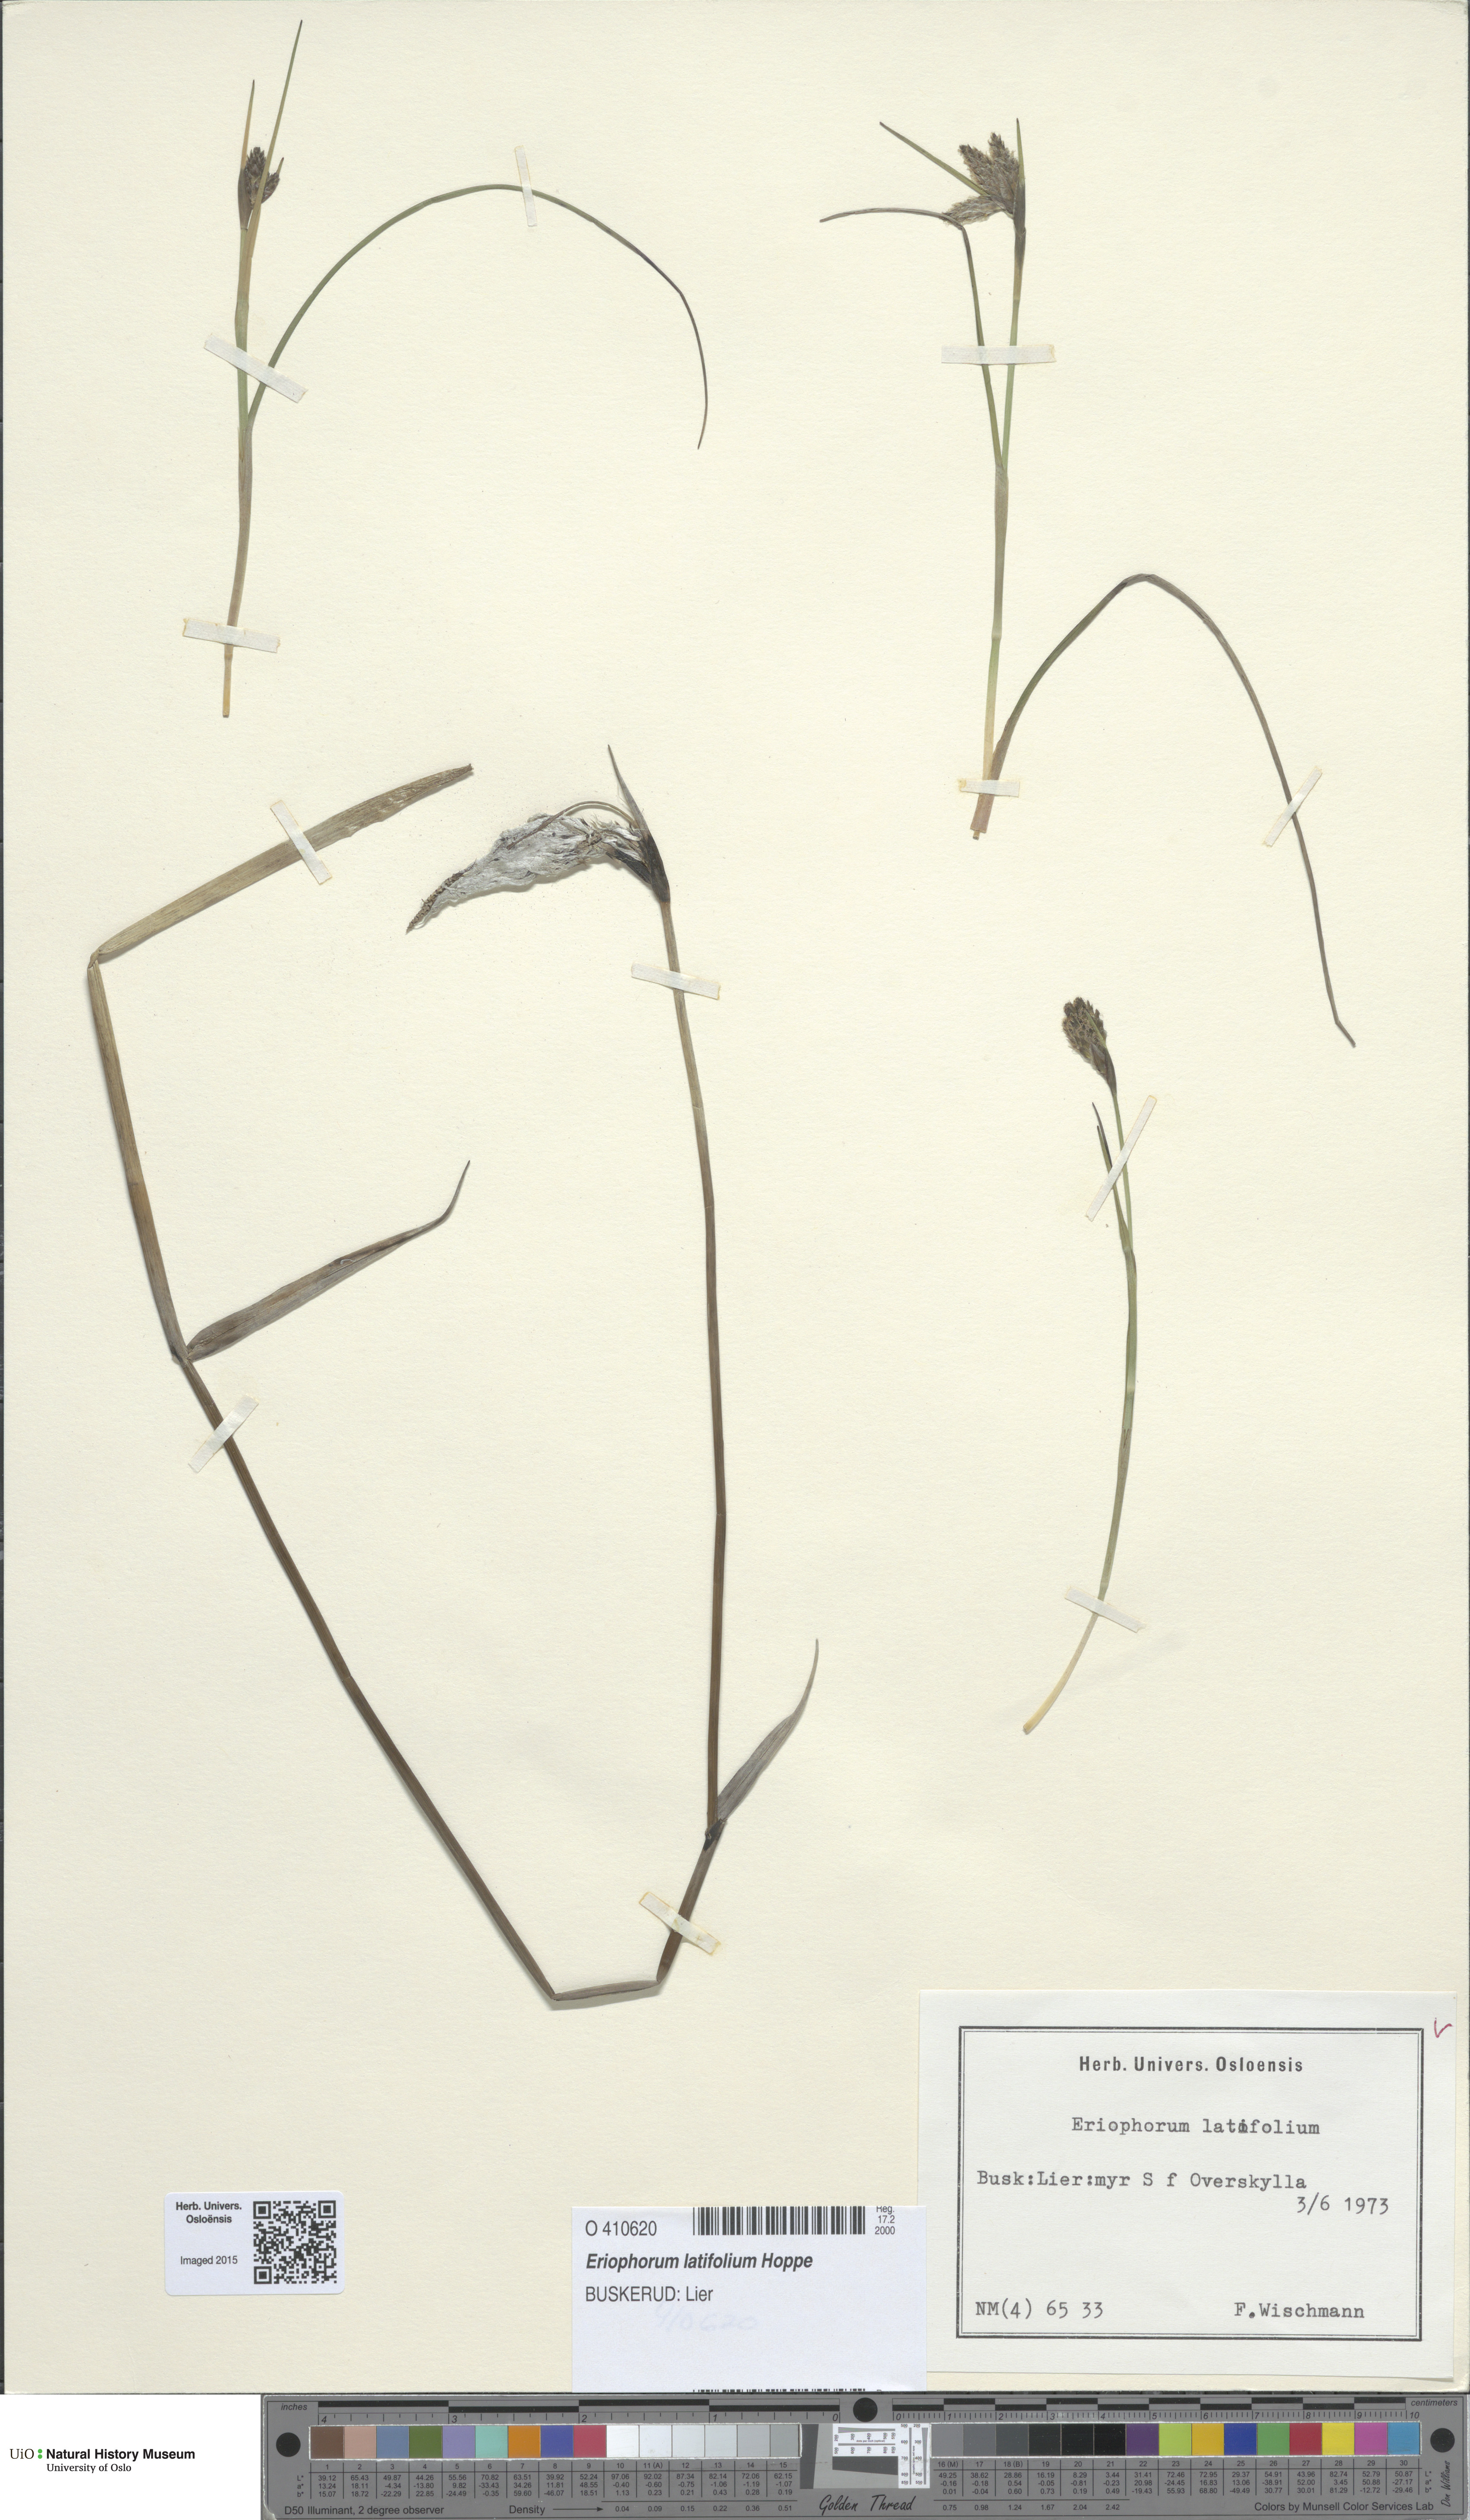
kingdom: Plantae
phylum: Tracheophyta
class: Liliopsida
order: Poales
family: Cyperaceae
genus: Eriophorum
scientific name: Eriophorum latifolium
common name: Broad-leaved cottongrass
